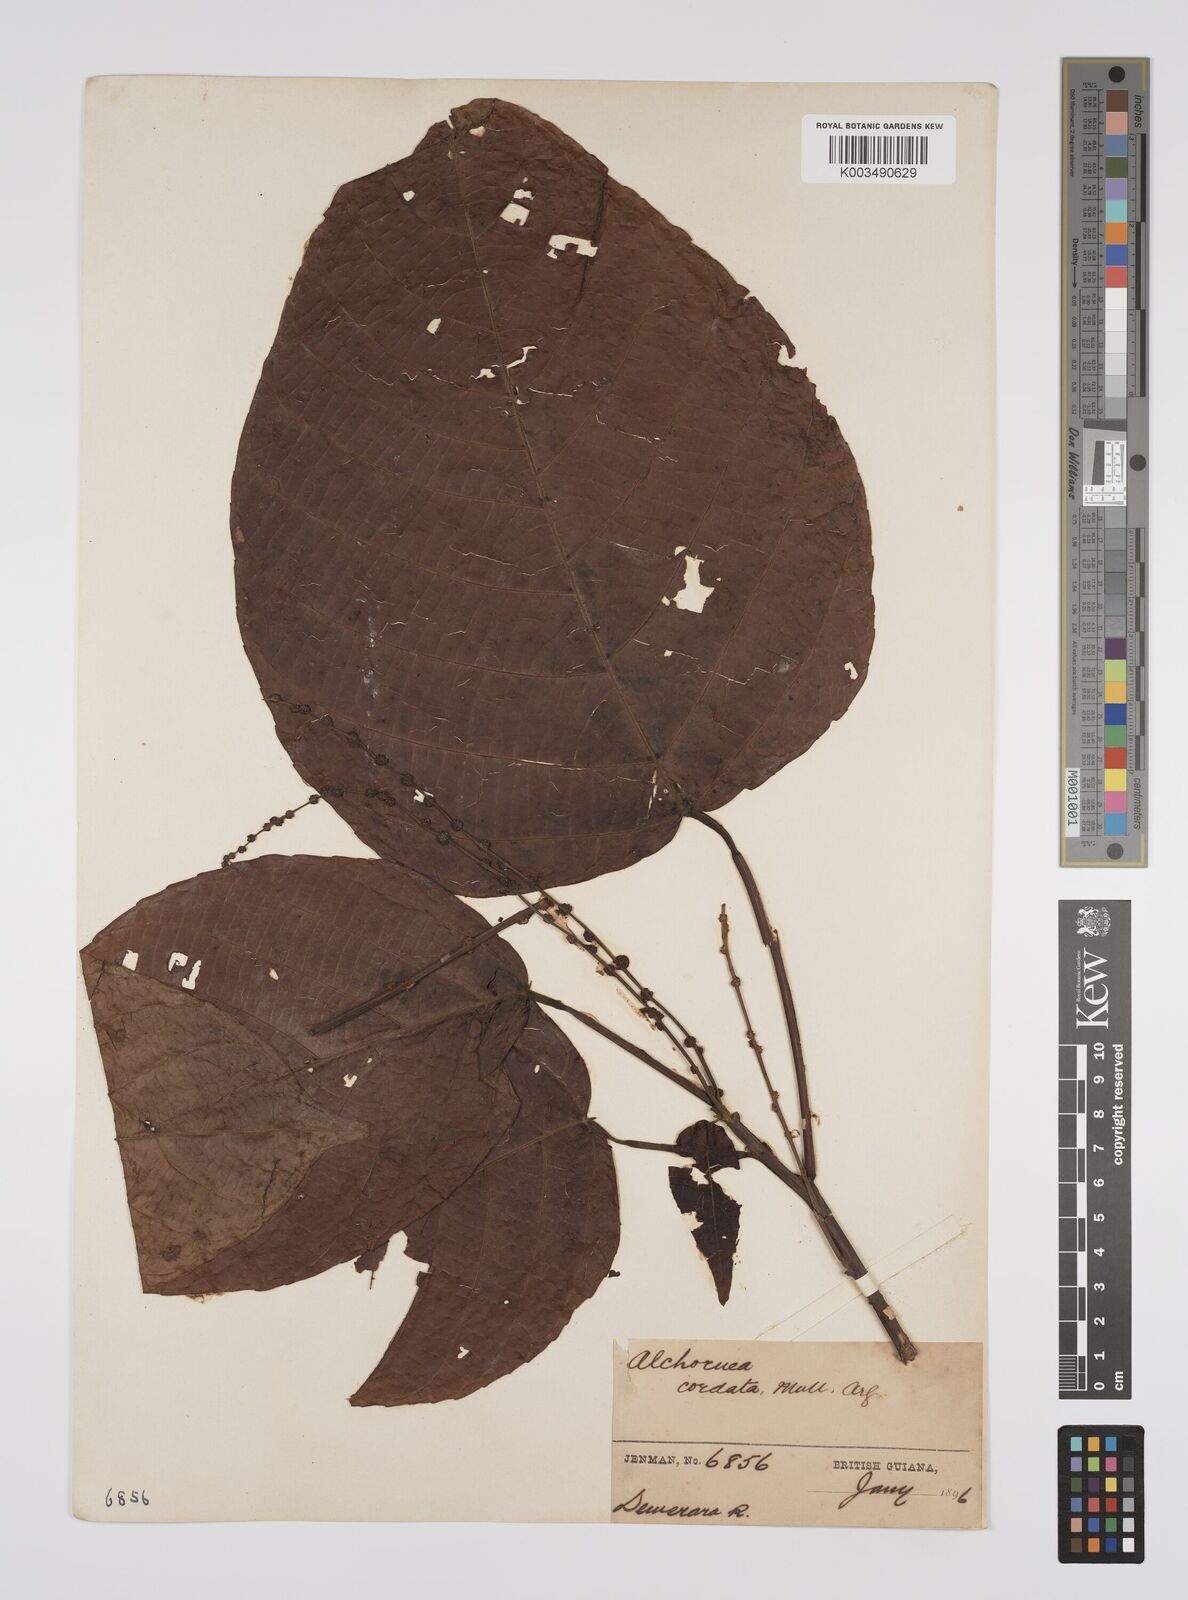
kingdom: Plantae
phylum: Tracheophyta
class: Magnoliopsida
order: Malpighiales
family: Euphorbiaceae
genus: Aparisthmium
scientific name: Aparisthmium cordatum
